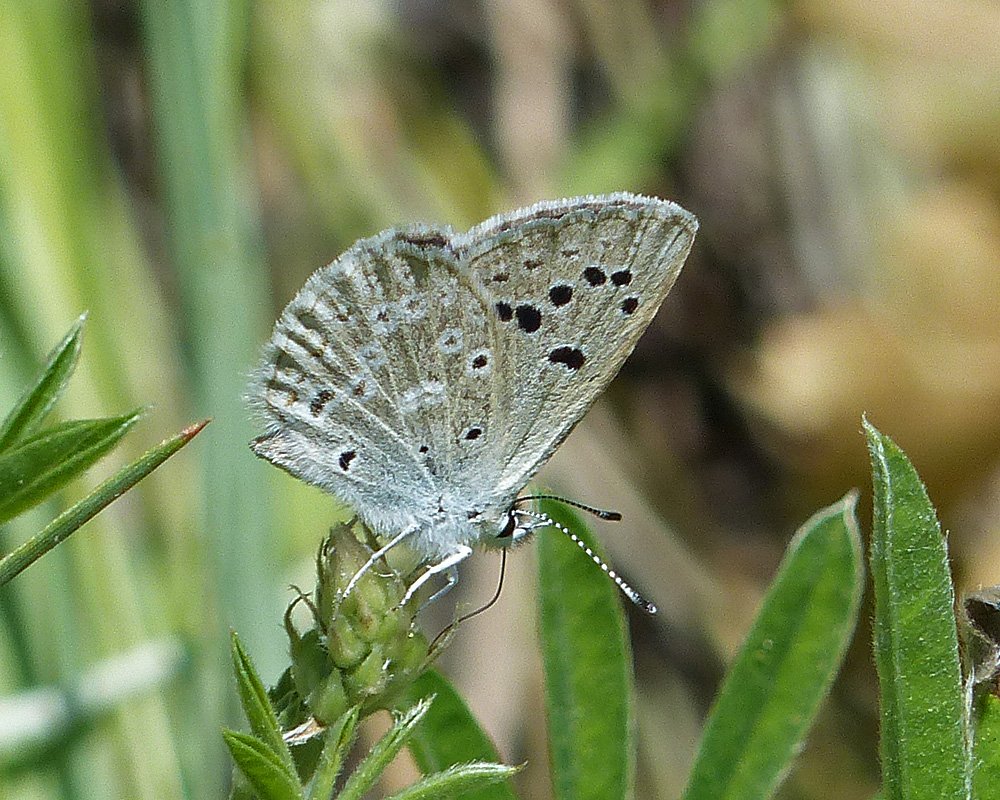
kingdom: Animalia
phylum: Arthropoda
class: Insecta
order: Lepidoptera
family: Lycaenidae
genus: Icaricia
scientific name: Icaricia icarioides
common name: Boisduval's Blue
